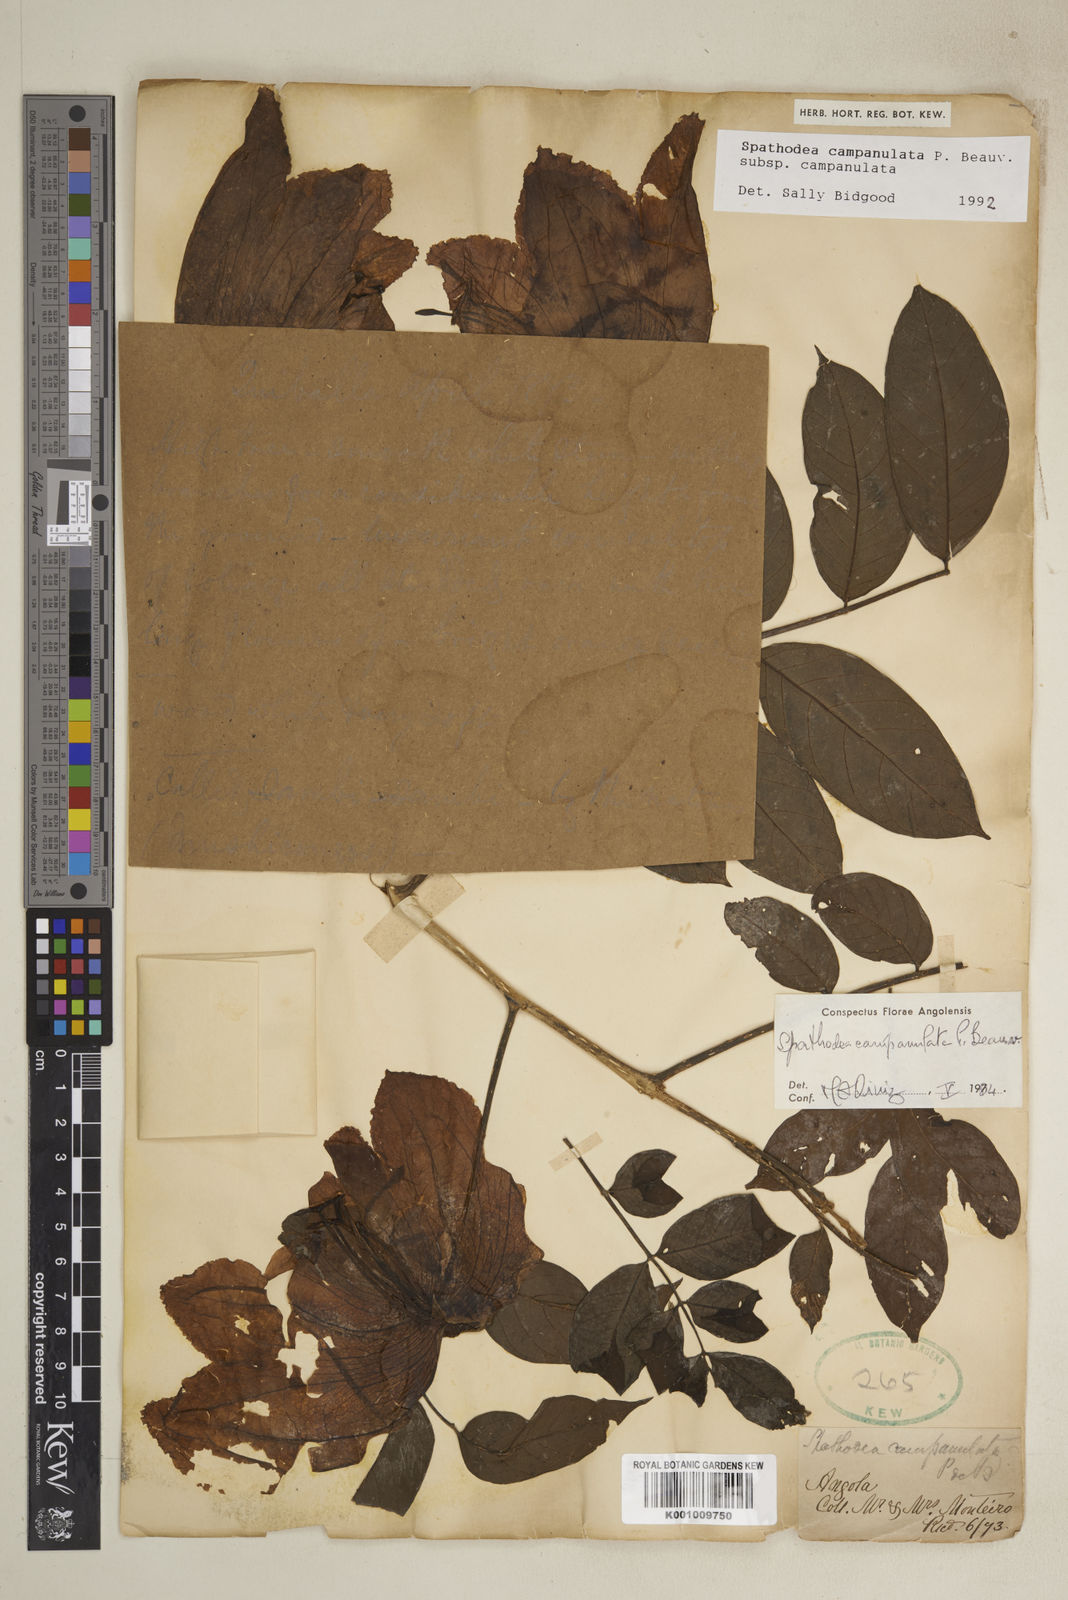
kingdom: Plantae
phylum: Tracheophyta
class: Magnoliopsida
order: Lamiales
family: Bignoniaceae
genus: Spathodea
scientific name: Spathodea campanulata
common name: African tuliptree
